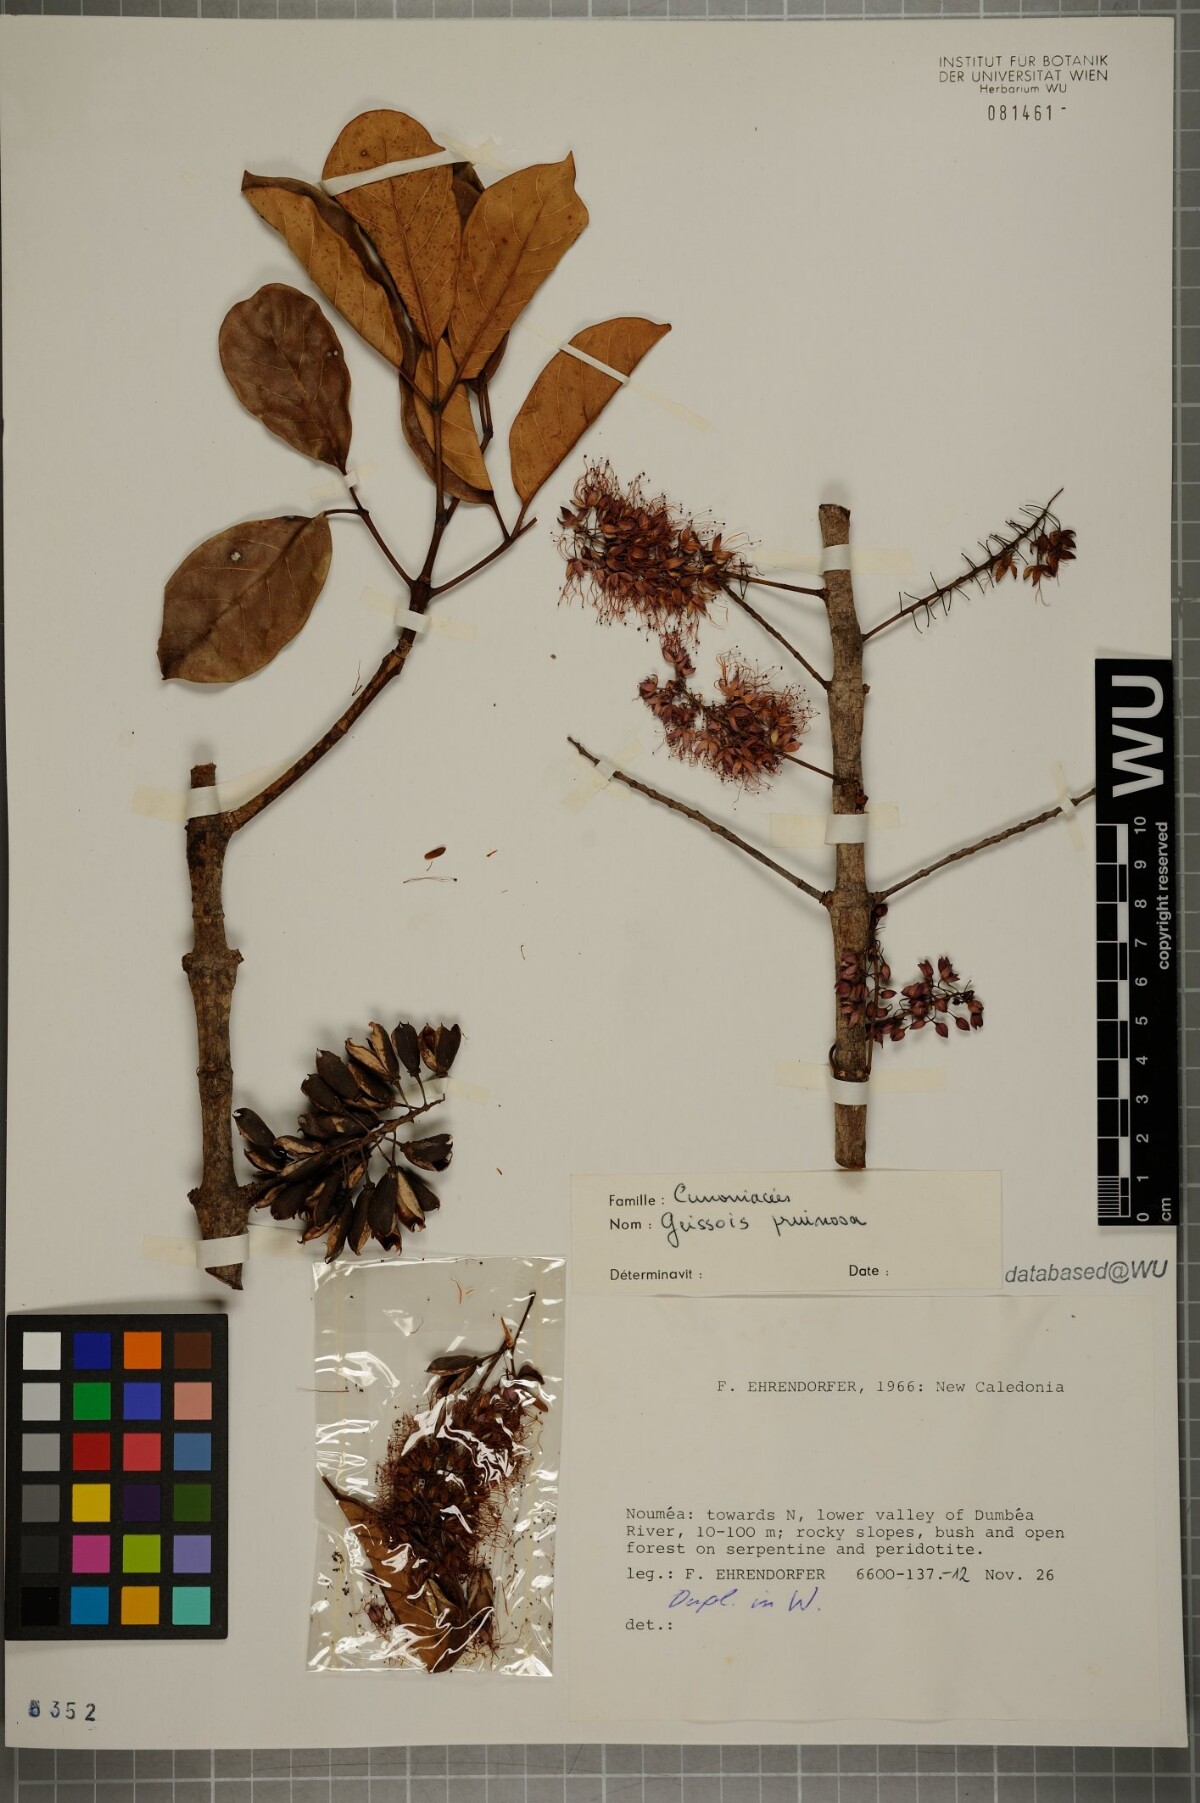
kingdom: Plantae
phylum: Tracheophyta
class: Magnoliopsida
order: Oxalidales
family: Cunoniaceae
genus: Geissois
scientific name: Geissois pruinosa
